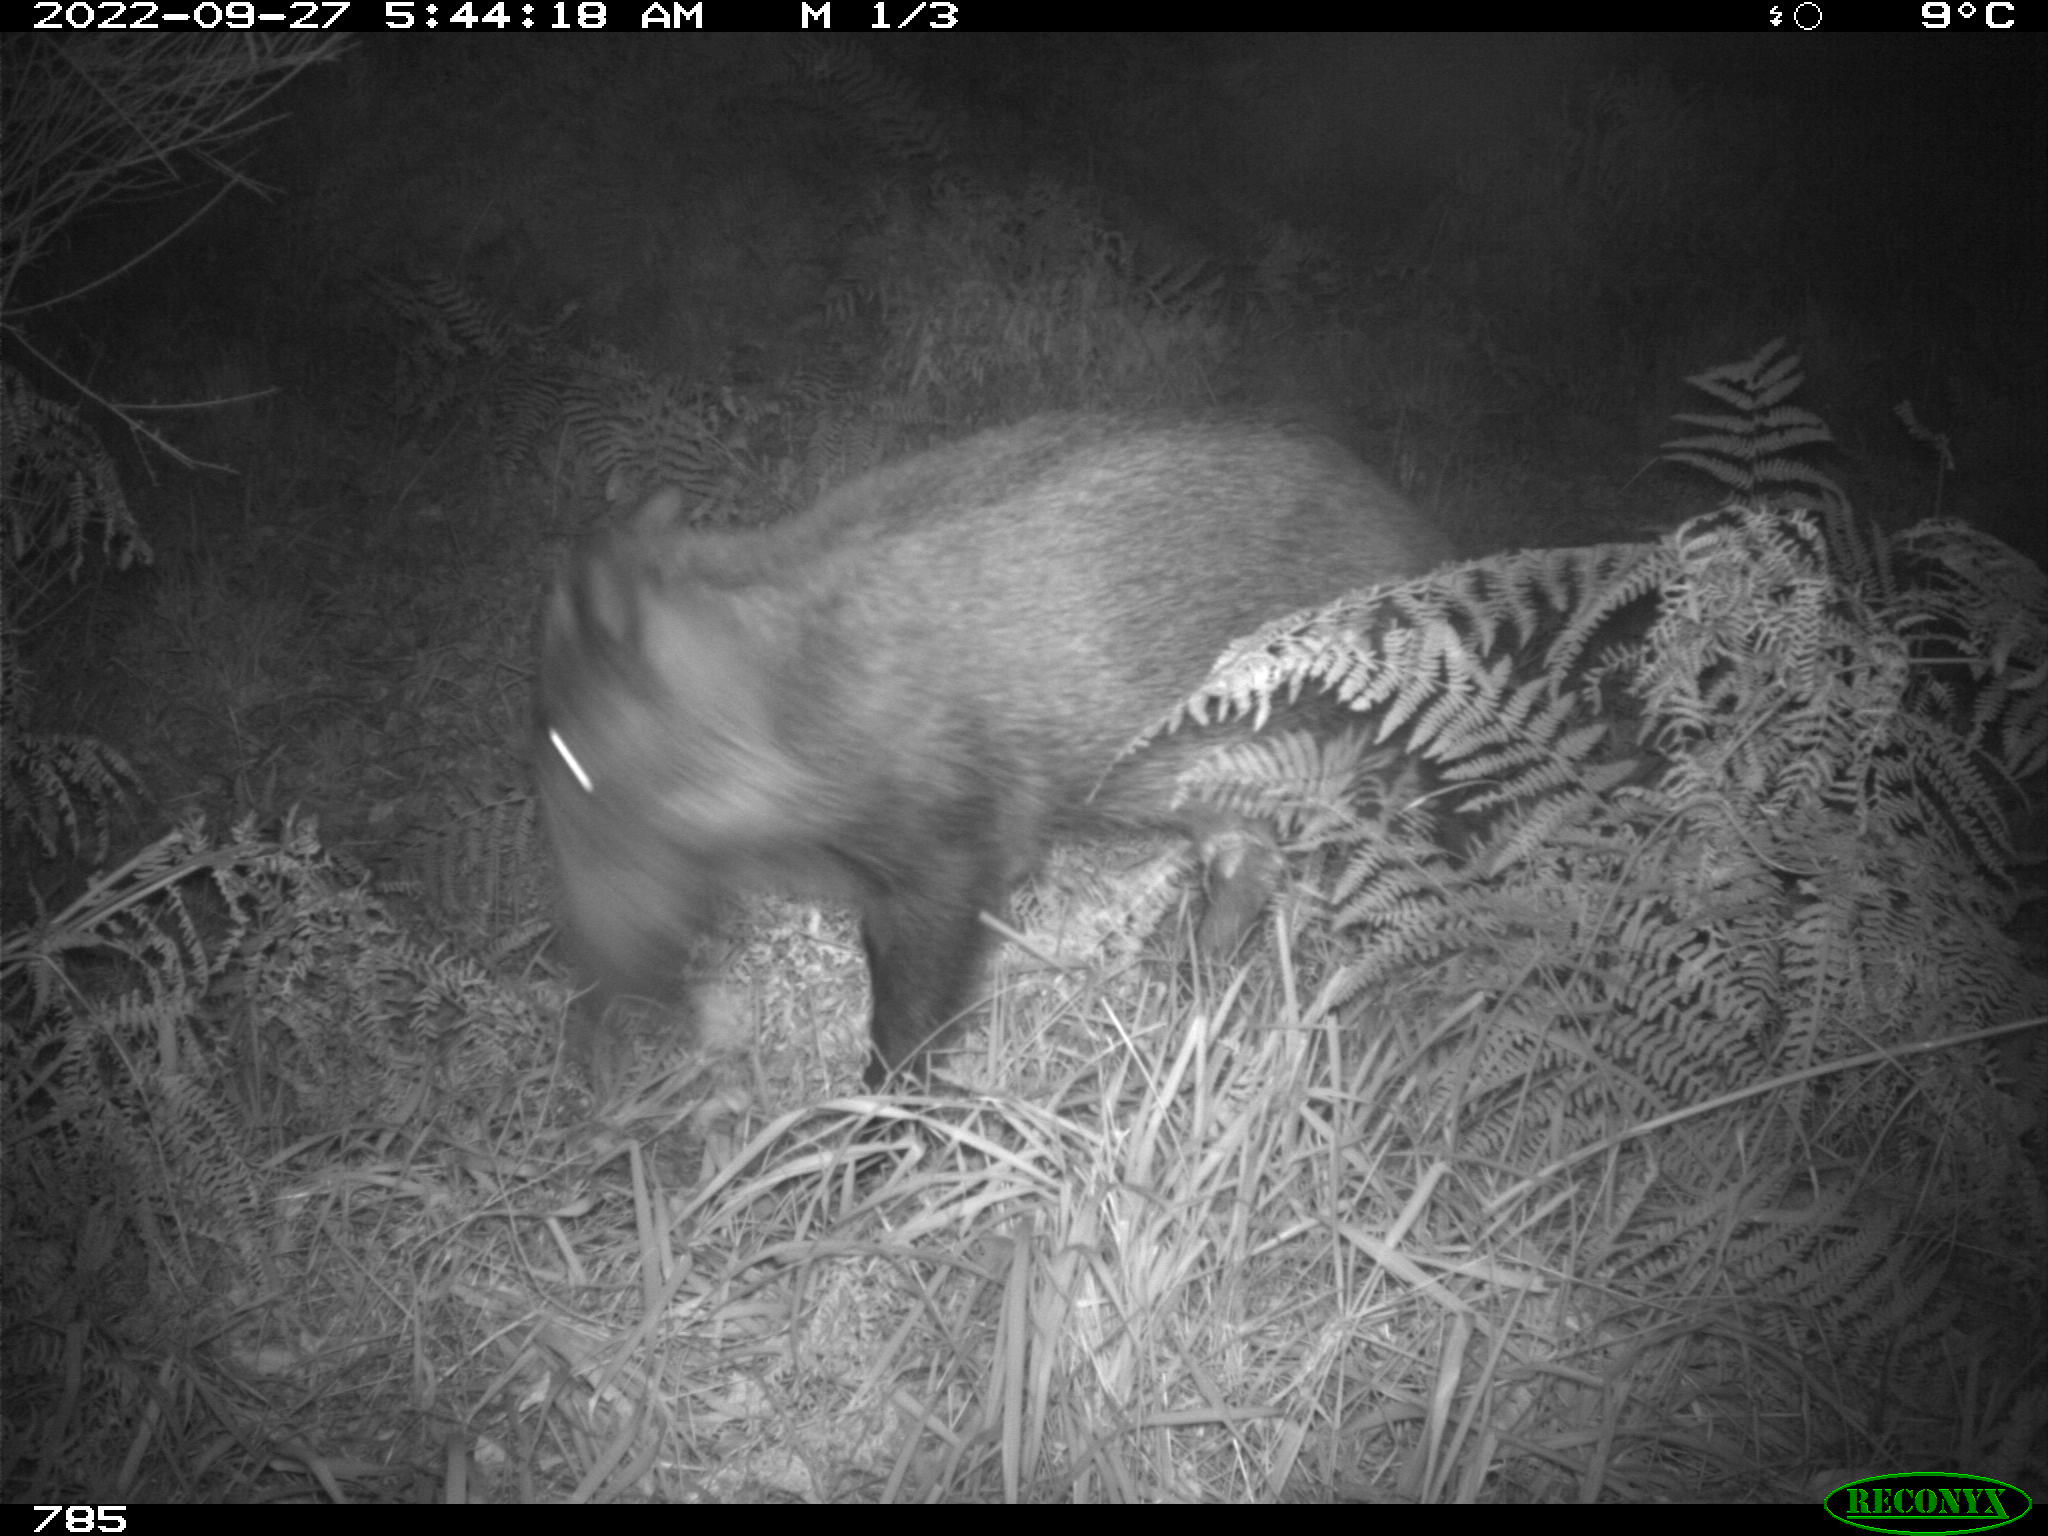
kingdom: Animalia
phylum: Chordata
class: Mammalia
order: Artiodactyla
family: Suidae
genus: Sus
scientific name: Sus scrofa
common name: Wild boar
